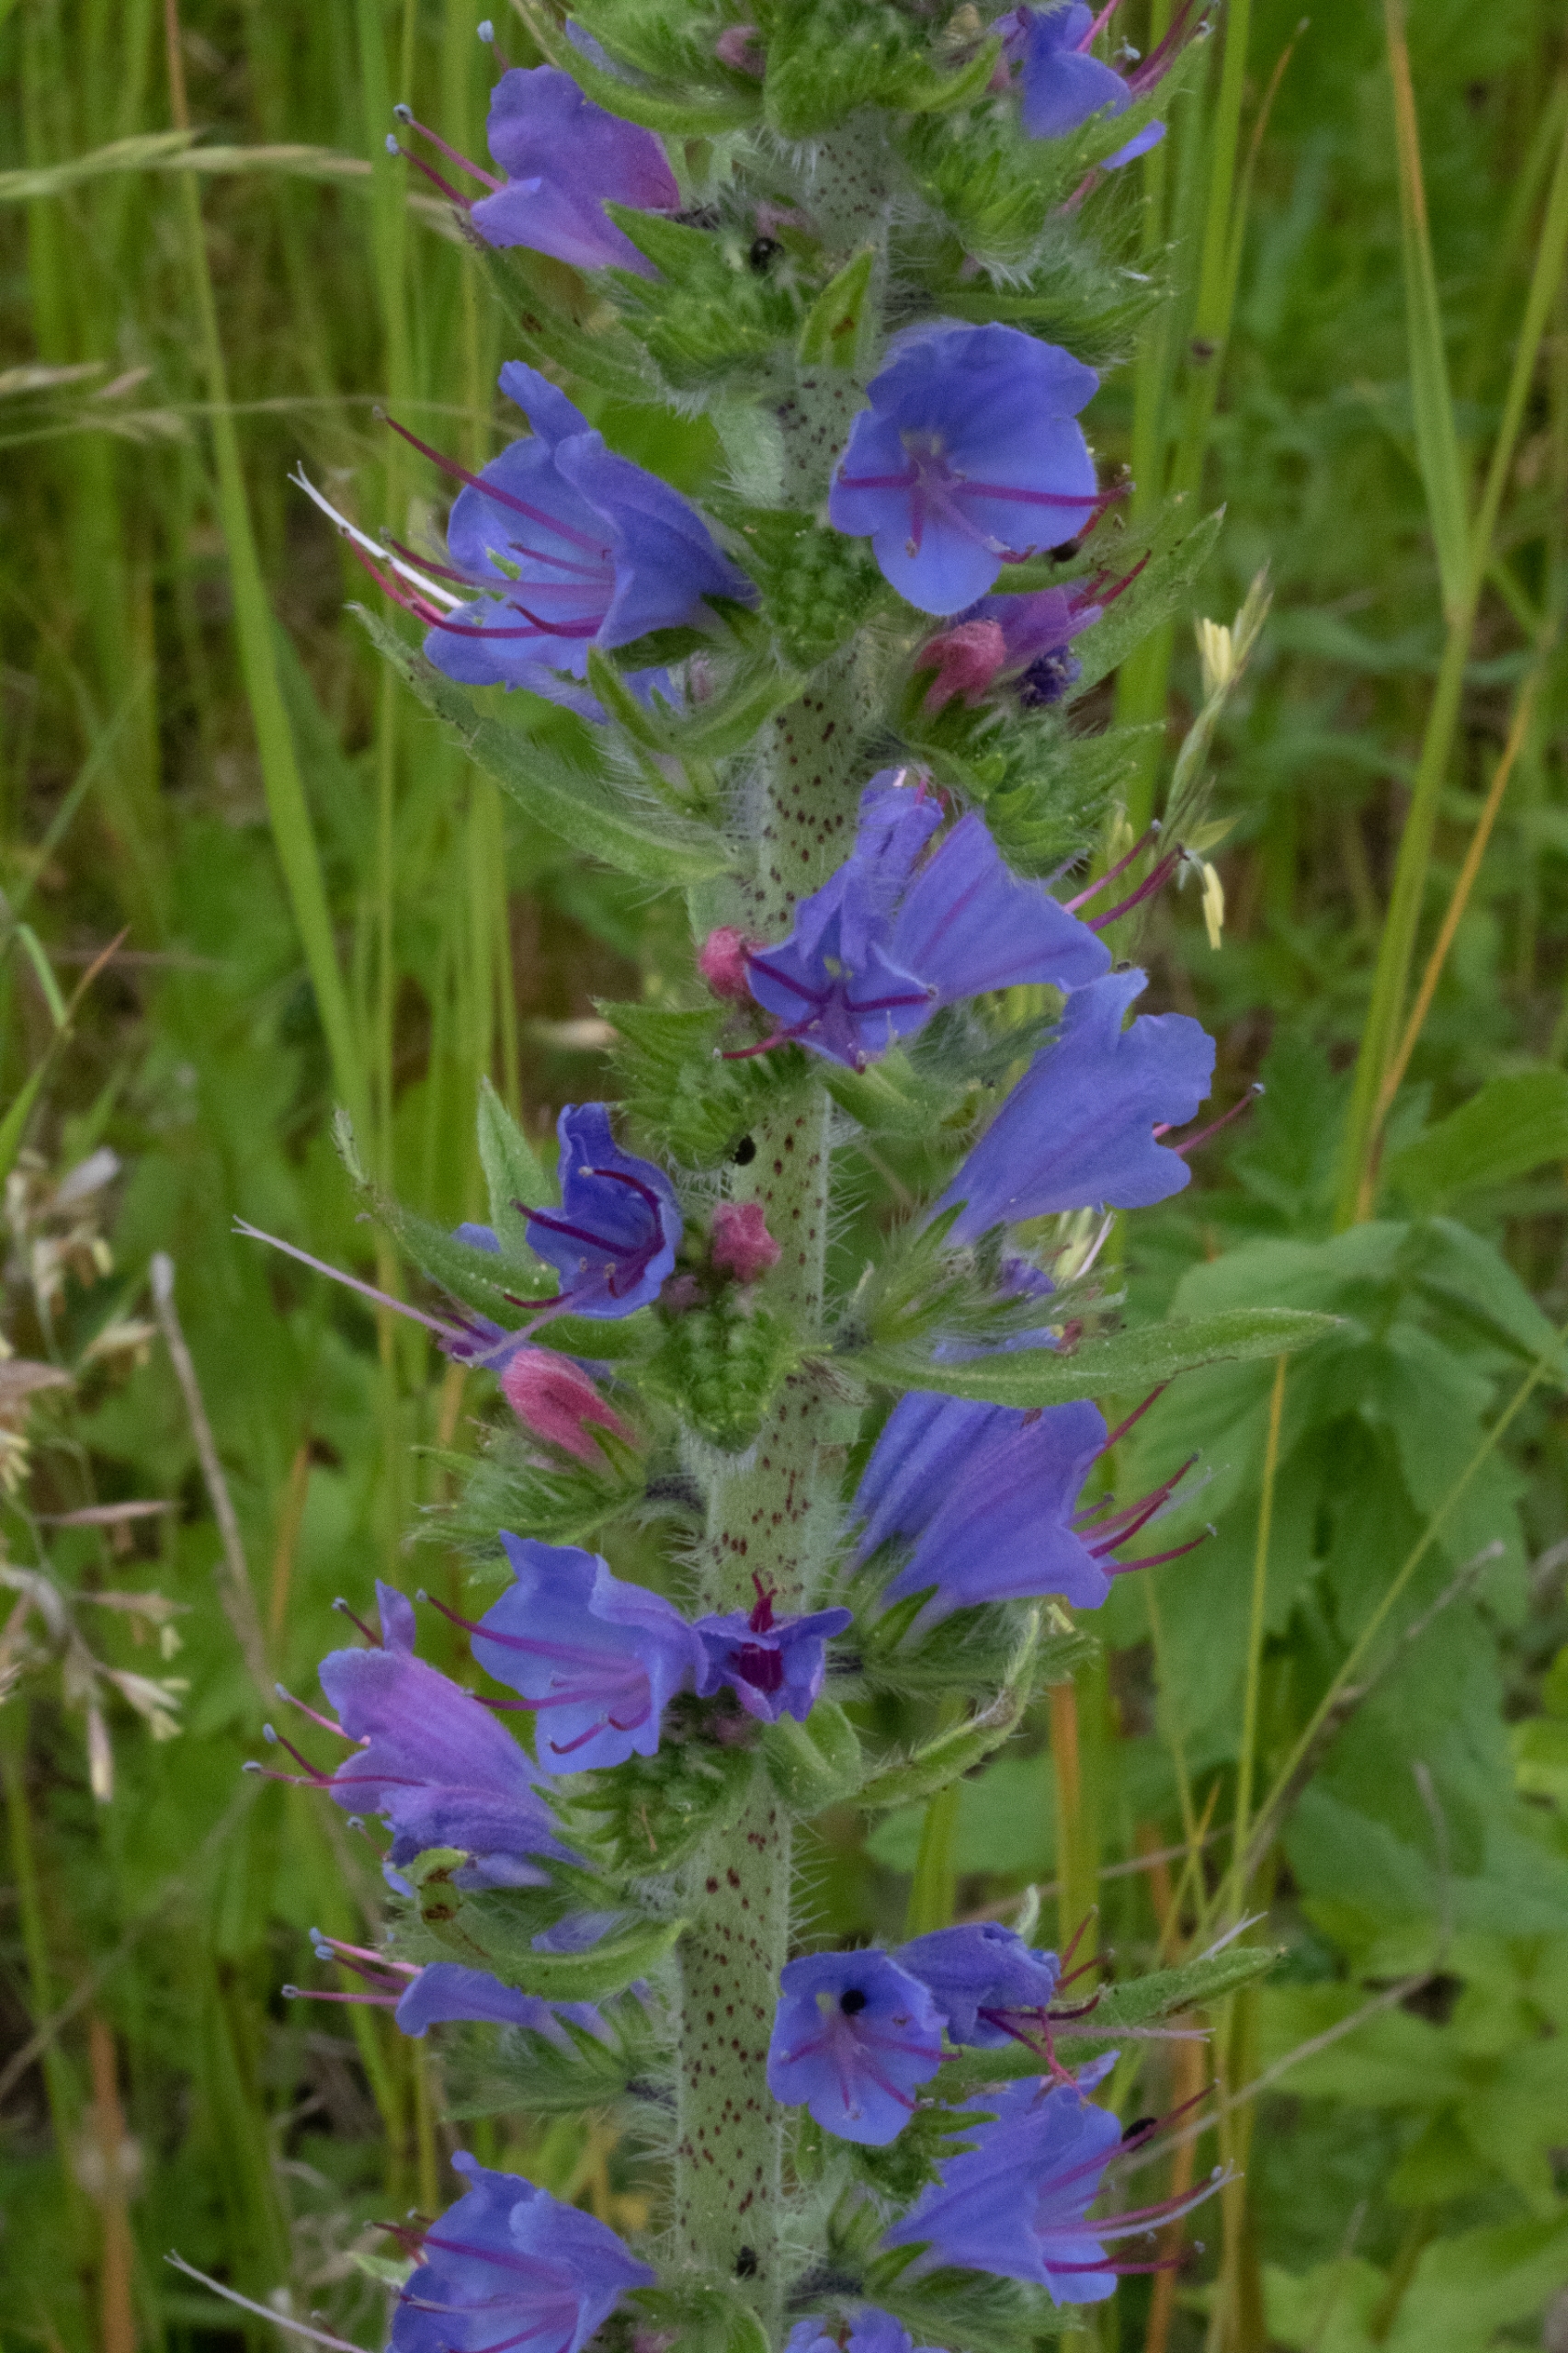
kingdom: Plantae
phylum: Tracheophyta
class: Magnoliopsida
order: Boraginales
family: Boraginaceae
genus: Echium
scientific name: Echium vulgare
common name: Slangehoved
